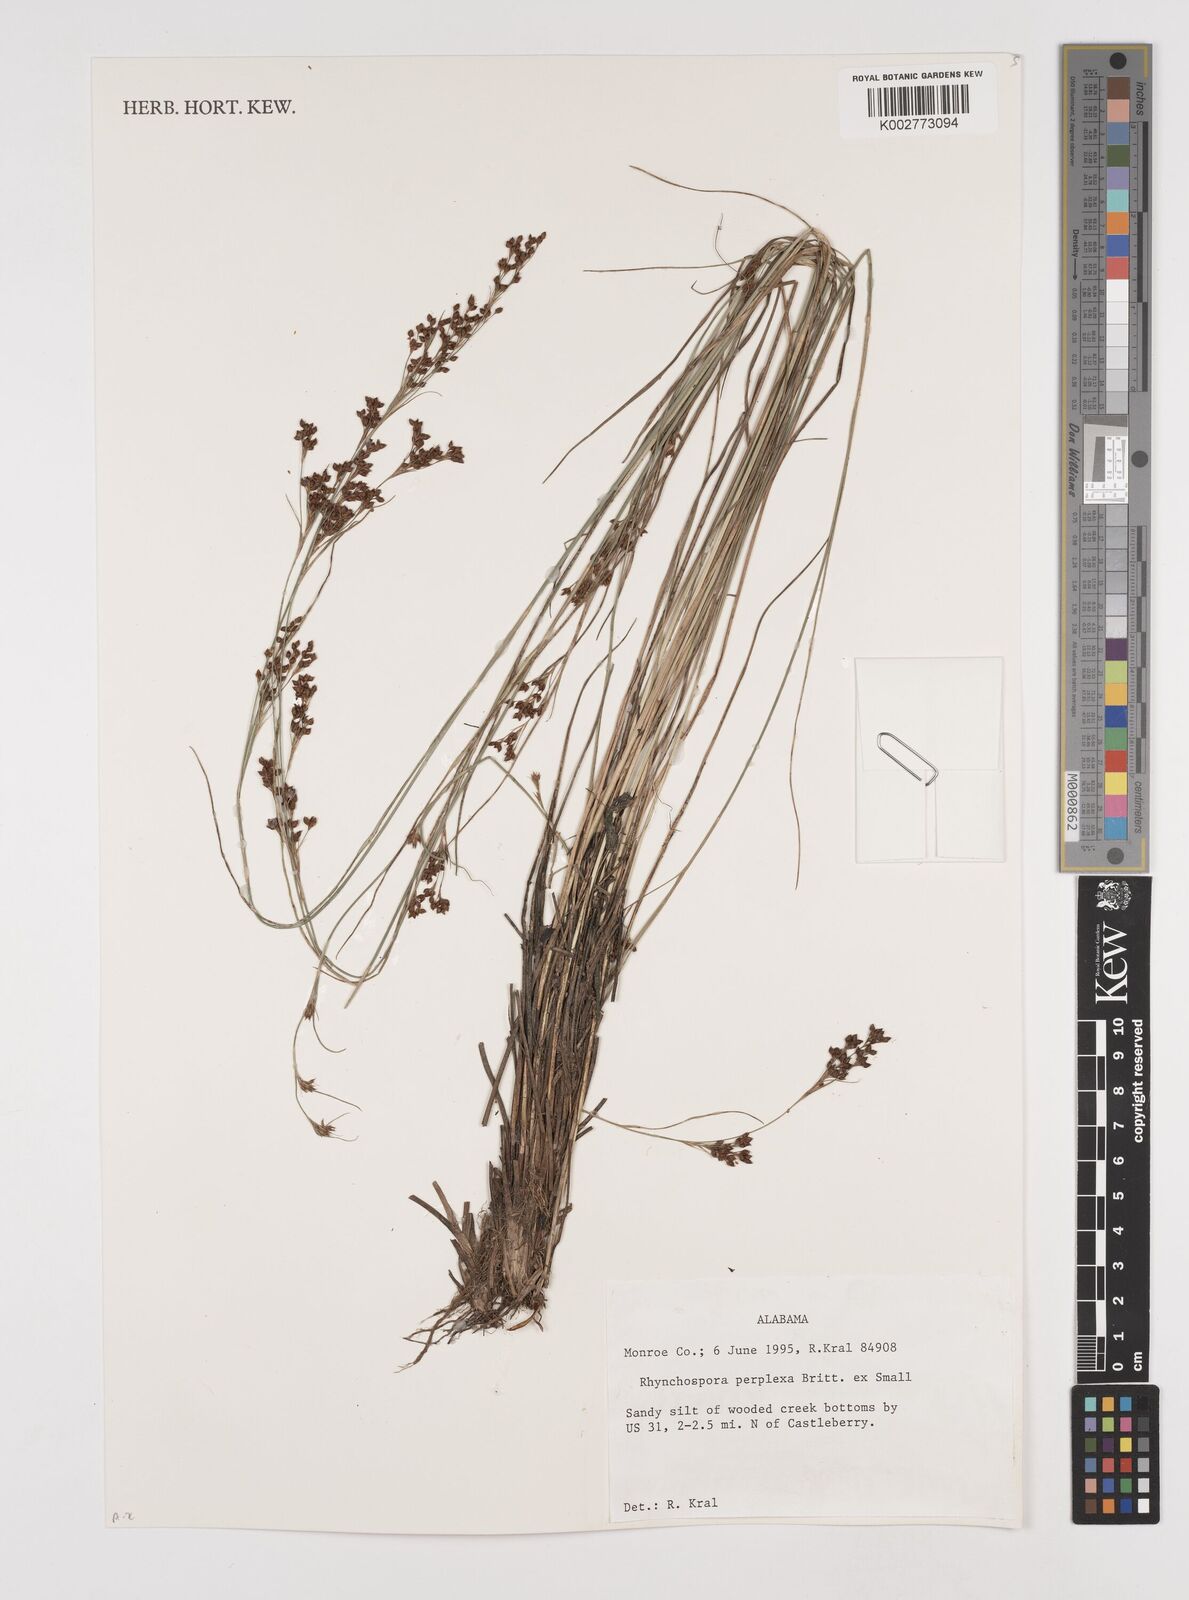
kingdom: Plantae
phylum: Tracheophyta
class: Liliopsida
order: Poales
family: Cyperaceae
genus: Rhynchospora
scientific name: Rhynchospora perplexa
